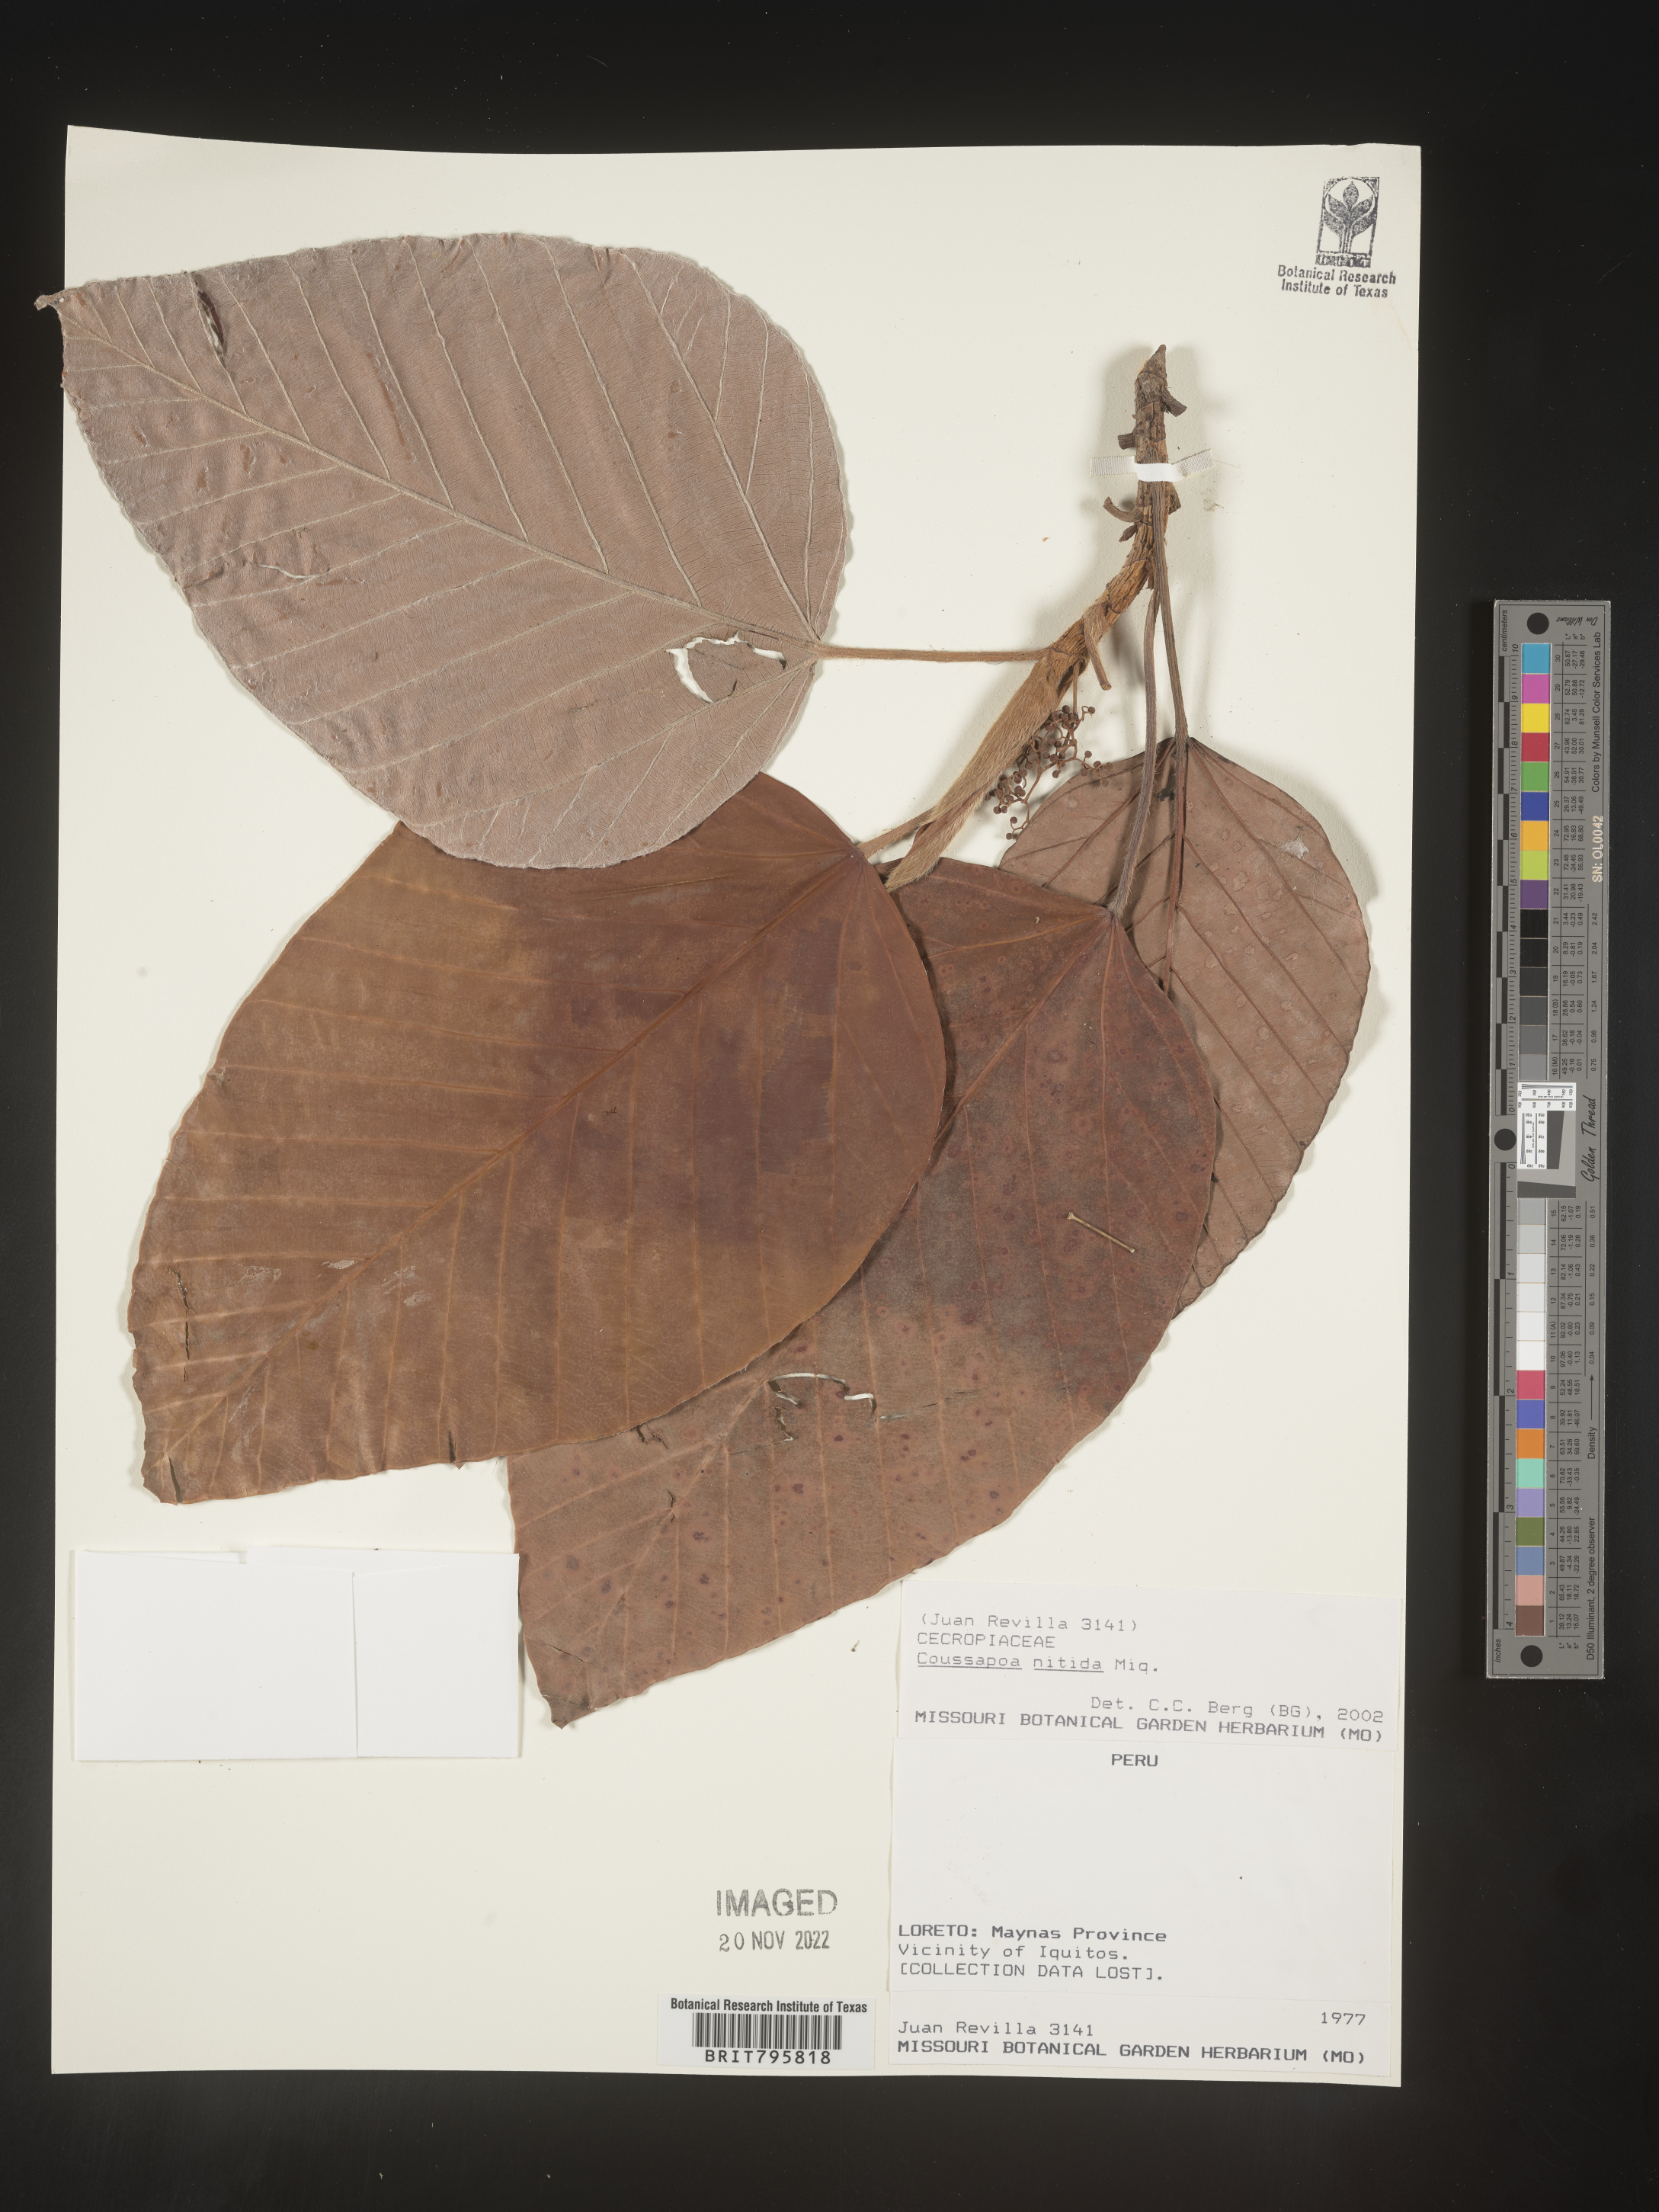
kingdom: Plantae
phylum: Tracheophyta
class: Magnoliopsida
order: Rosales
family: Urticaceae
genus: Coussapoa
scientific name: Coussapoa
